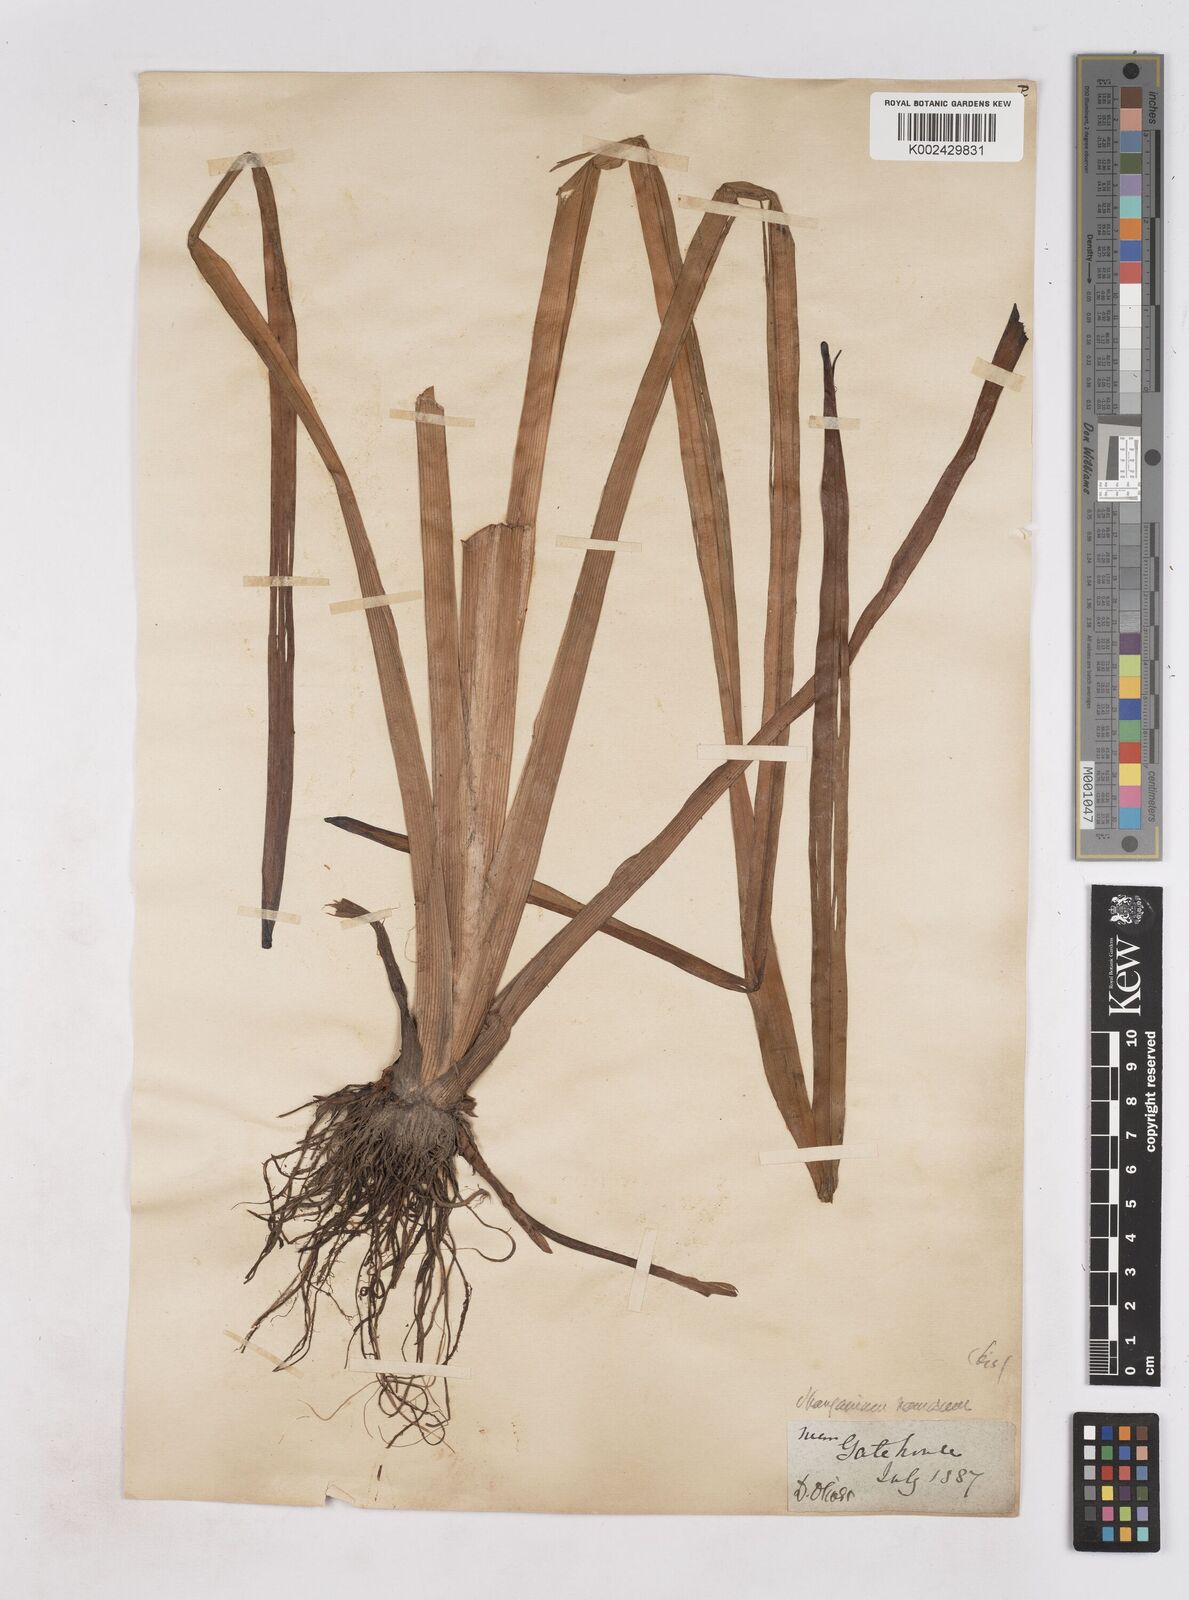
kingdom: Plantae
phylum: Tracheophyta
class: Liliopsida
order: Poales
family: Typhaceae
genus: Sparganium
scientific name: Sparganium erectum
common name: Branched bur-reed
